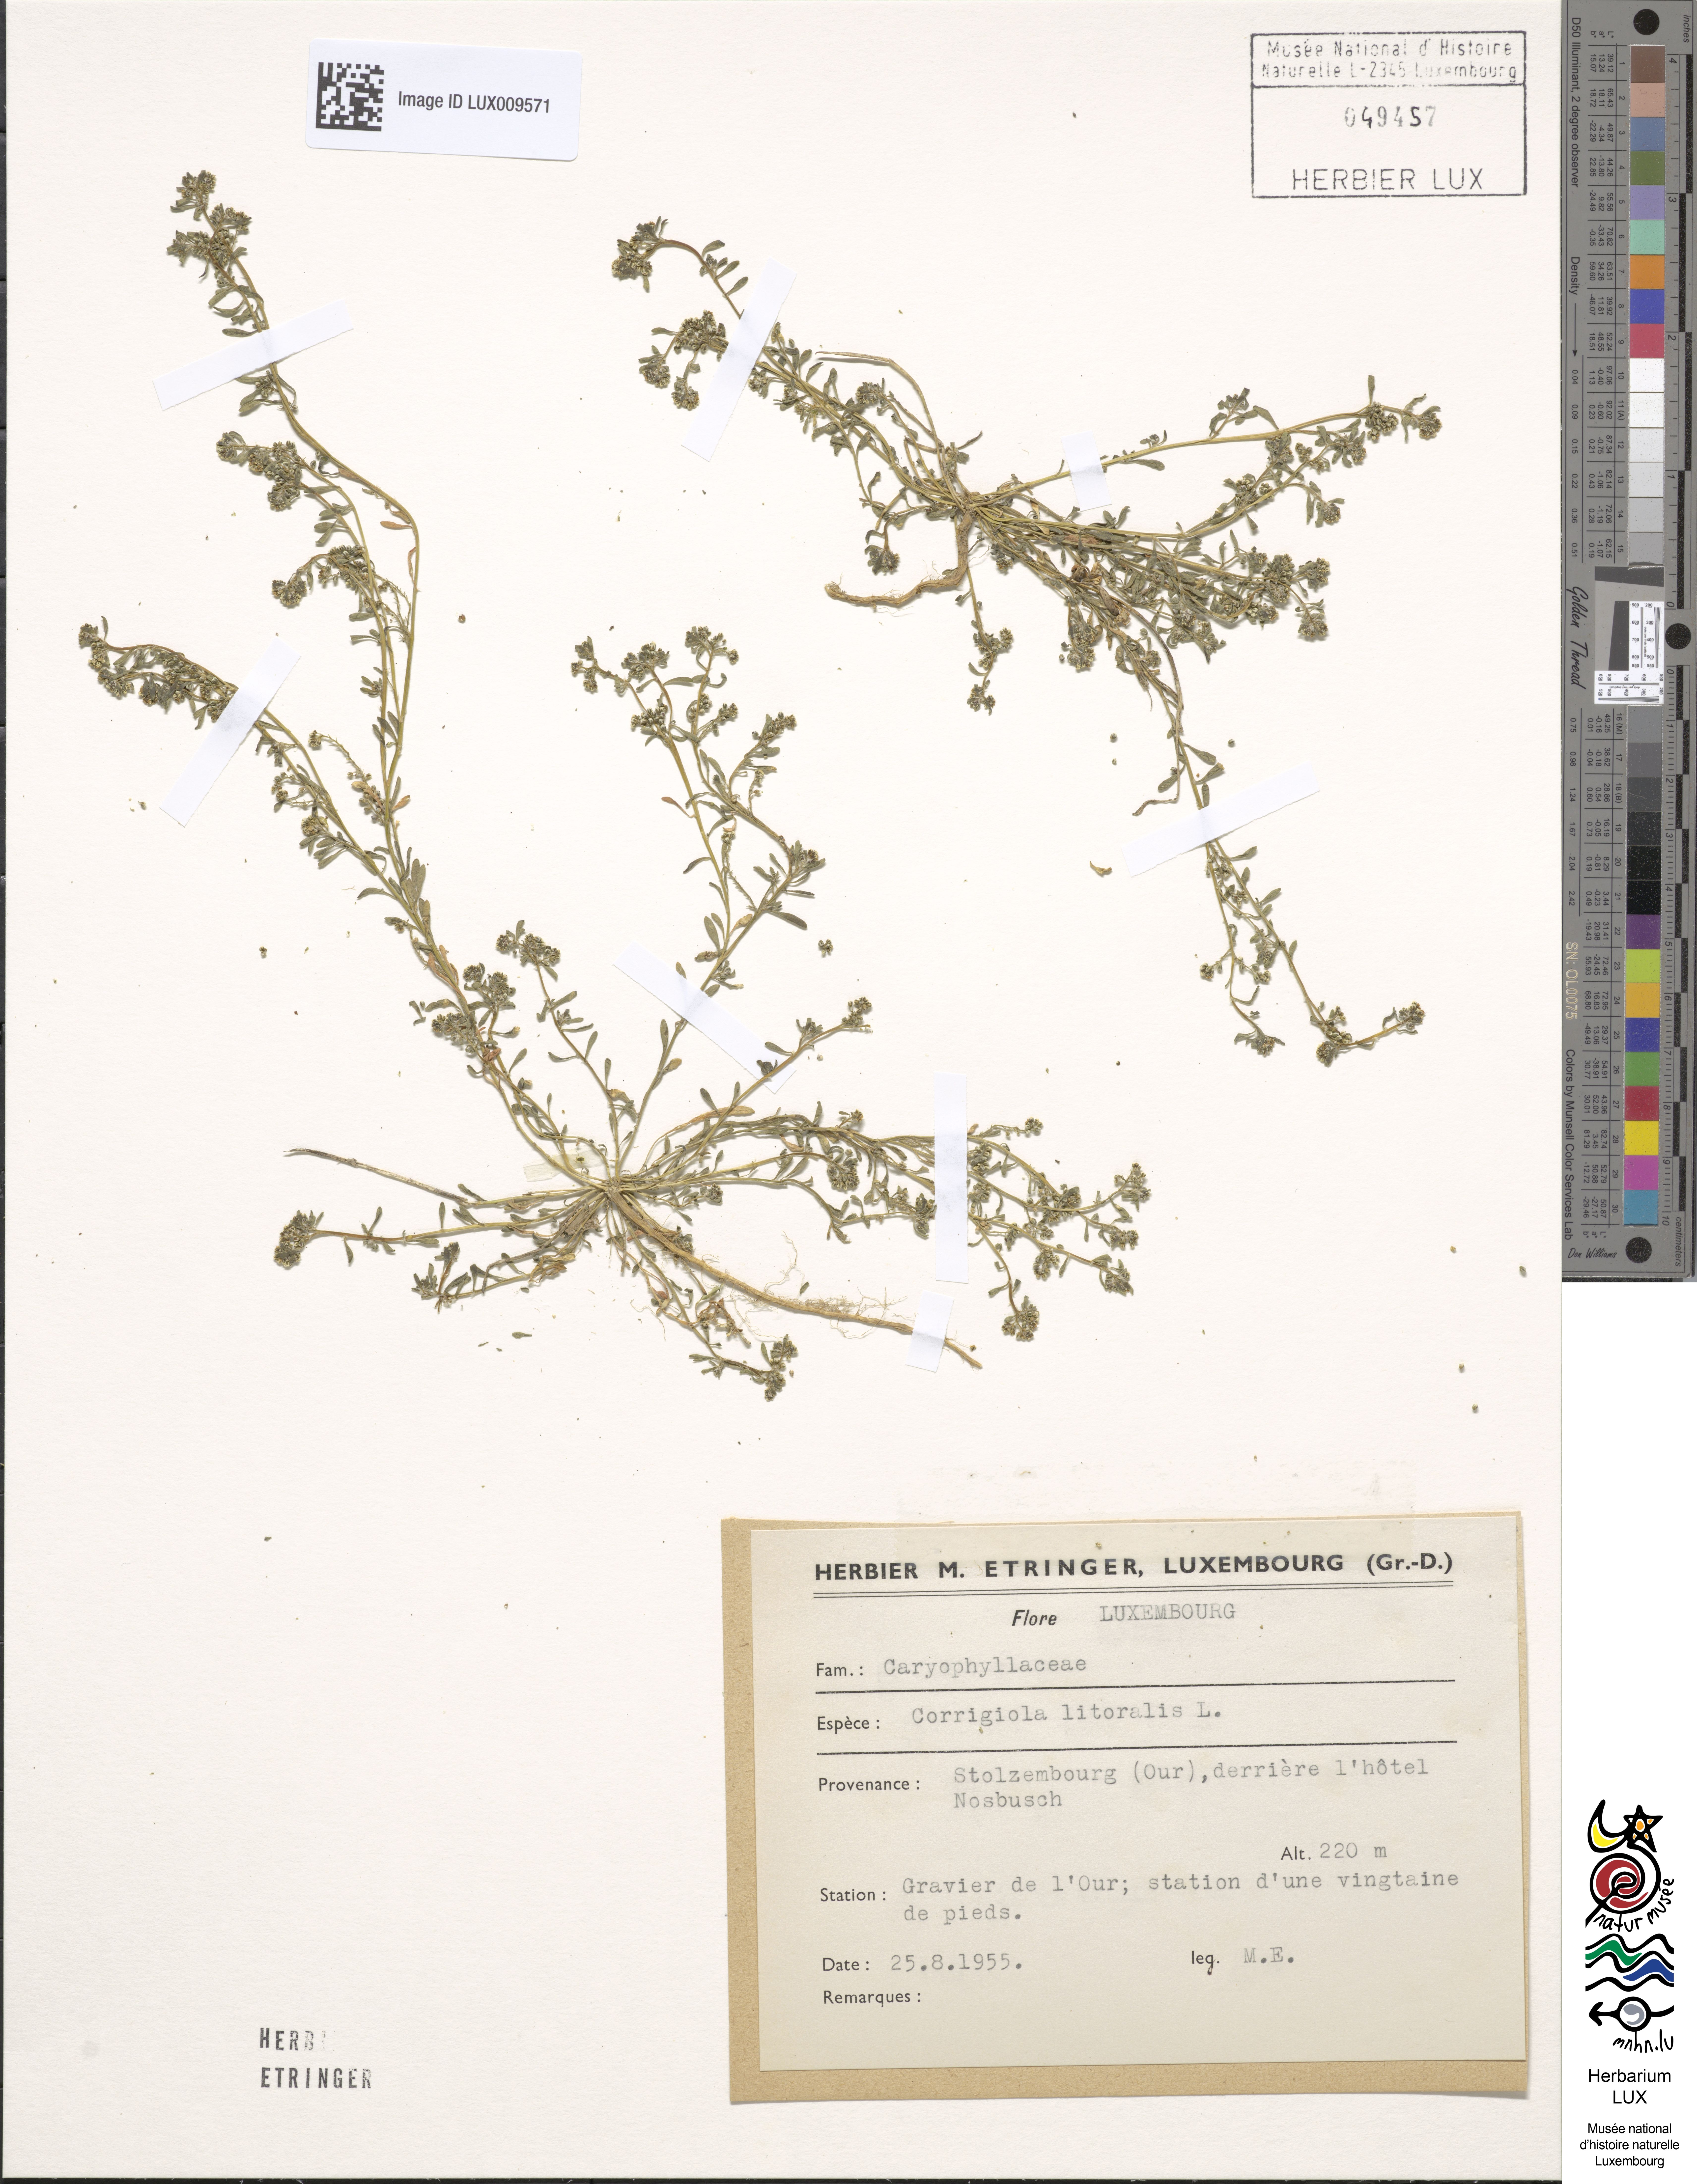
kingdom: Plantae
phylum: Tracheophyta
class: Magnoliopsida
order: Caryophyllales
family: Caryophyllaceae
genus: Corrigiola
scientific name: Corrigiola litoralis
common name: Strapwort
